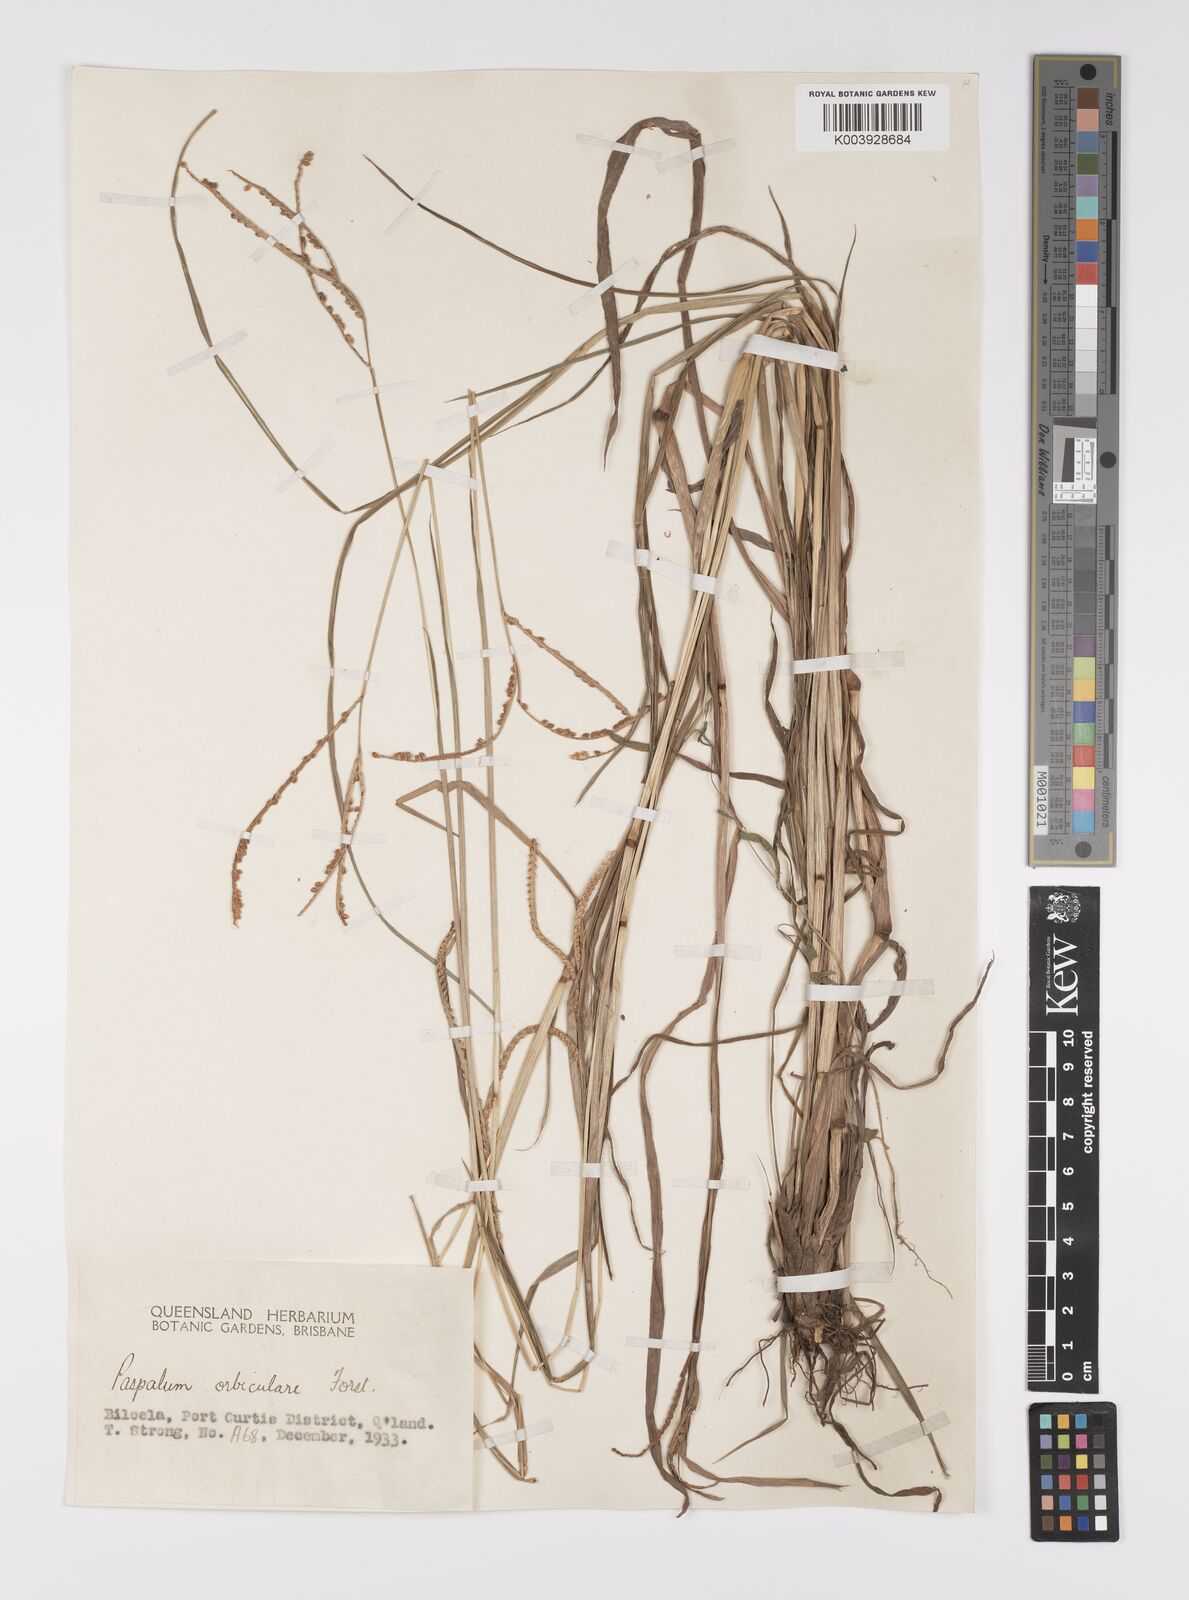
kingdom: Plantae
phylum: Tracheophyta
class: Liliopsida
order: Poales
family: Poaceae
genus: Paspalum
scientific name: Paspalum scrobiculatum
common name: Kodo millet
